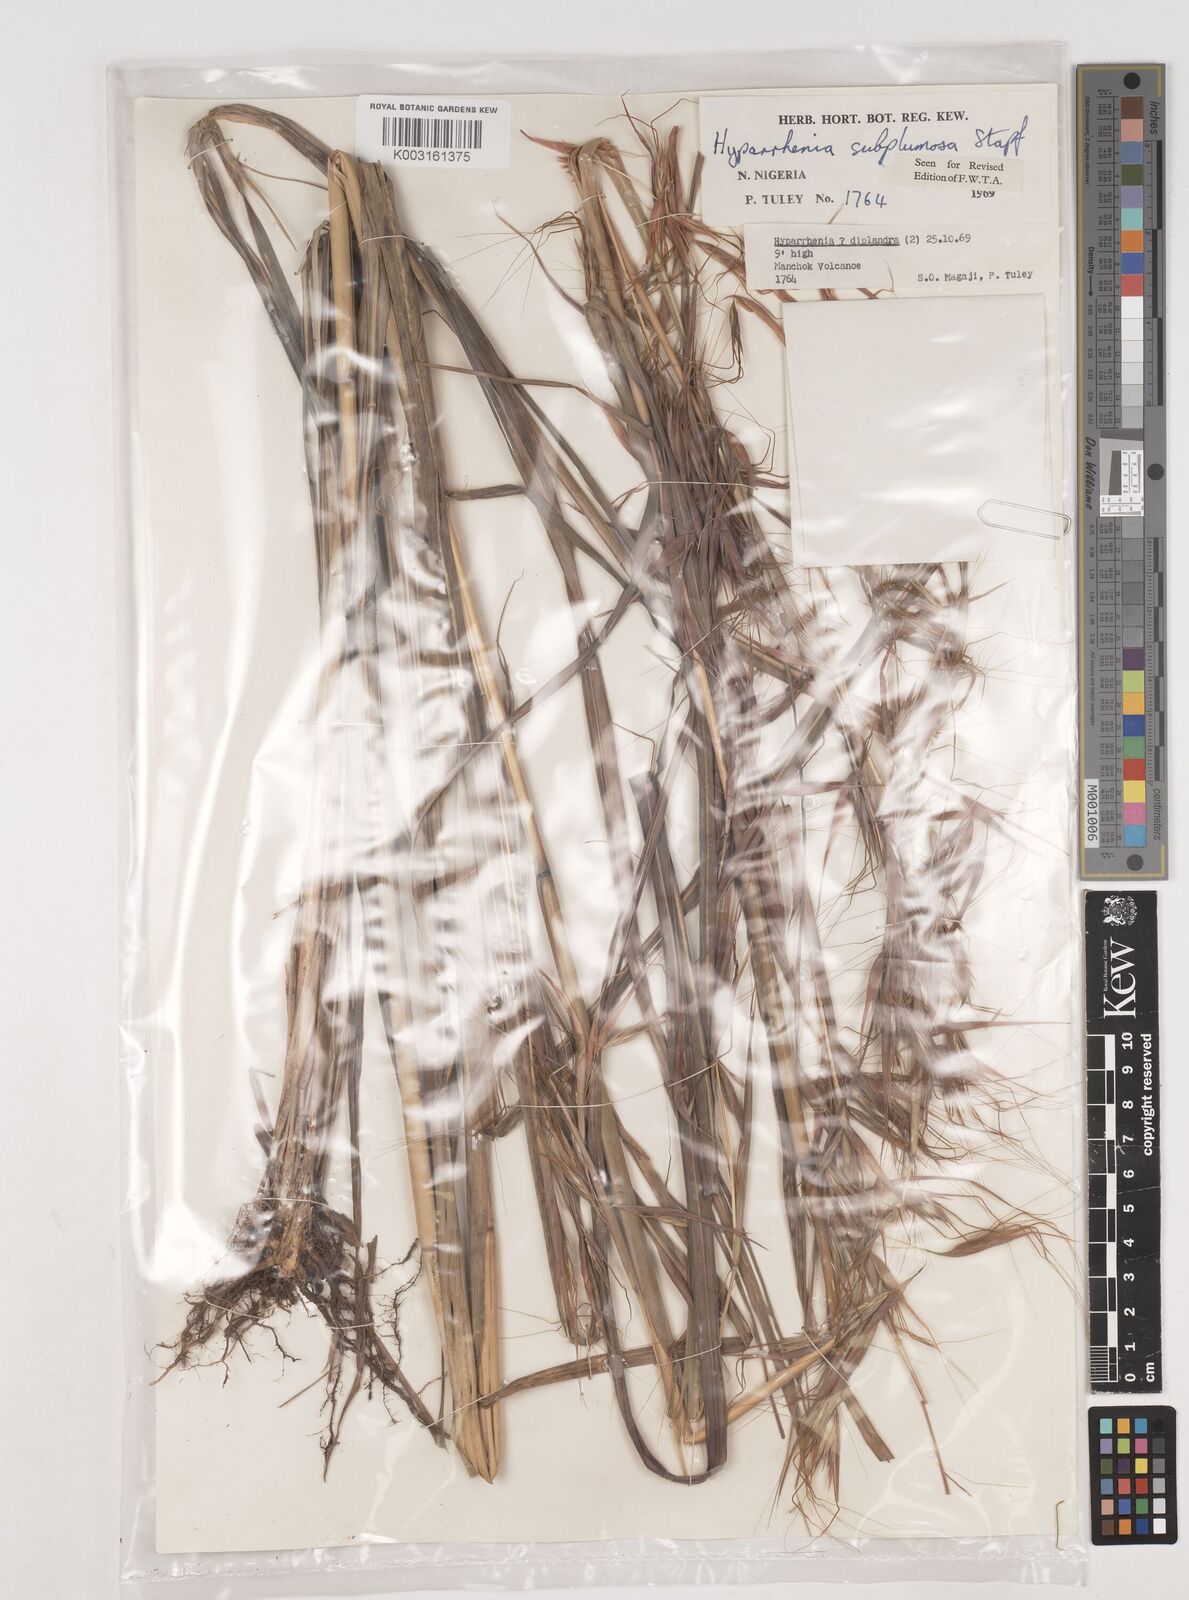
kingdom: Plantae
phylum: Tracheophyta
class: Liliopsida
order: Poales
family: Poaceae
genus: Hyparrhenia
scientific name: Hyparrhenia subplumosa
